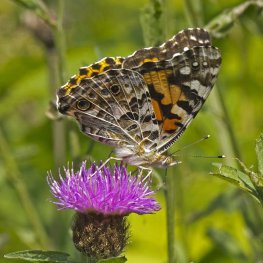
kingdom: Animalia
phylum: Arthropoda
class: Insecta
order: Lepidoptera
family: Nymphalidae
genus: Vanessa
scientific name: Vanessa cardui
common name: Painted Lady
